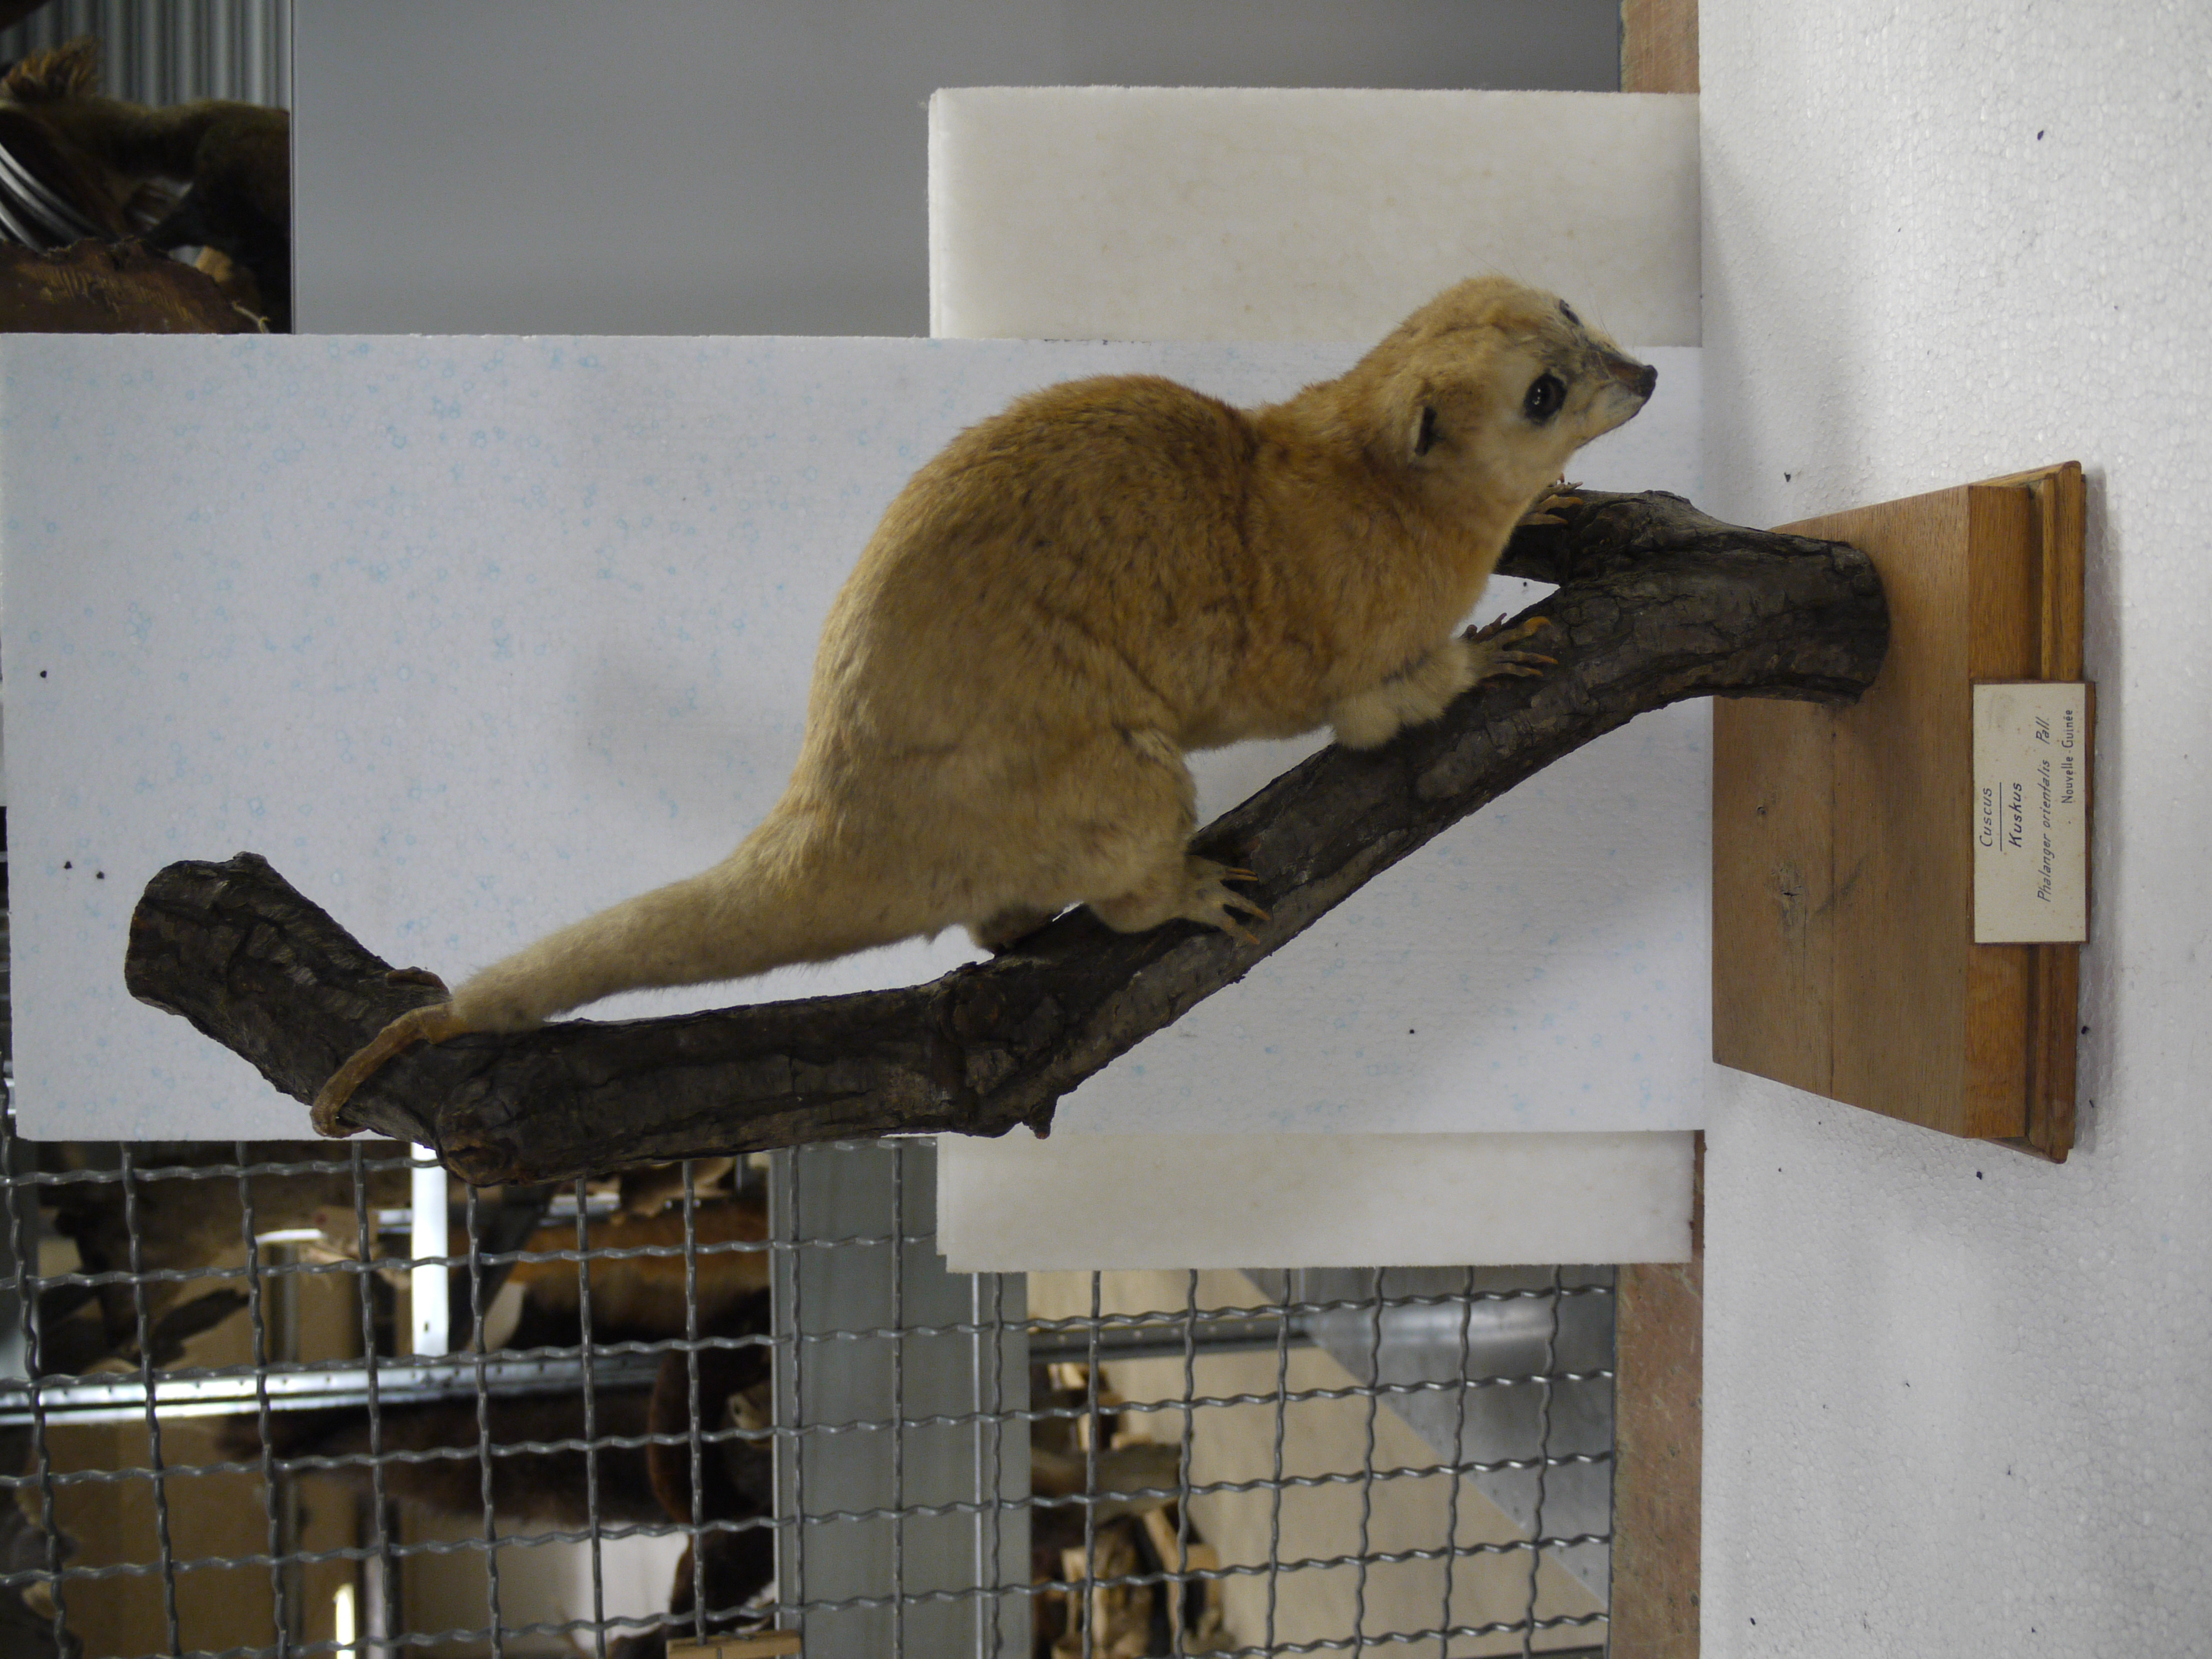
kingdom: Animalia
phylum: Chordata
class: Mammalia
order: Diprotodontia
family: Phalangeridae
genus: Phalanger
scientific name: Phalanger orientalis
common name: Northern common cuscus
